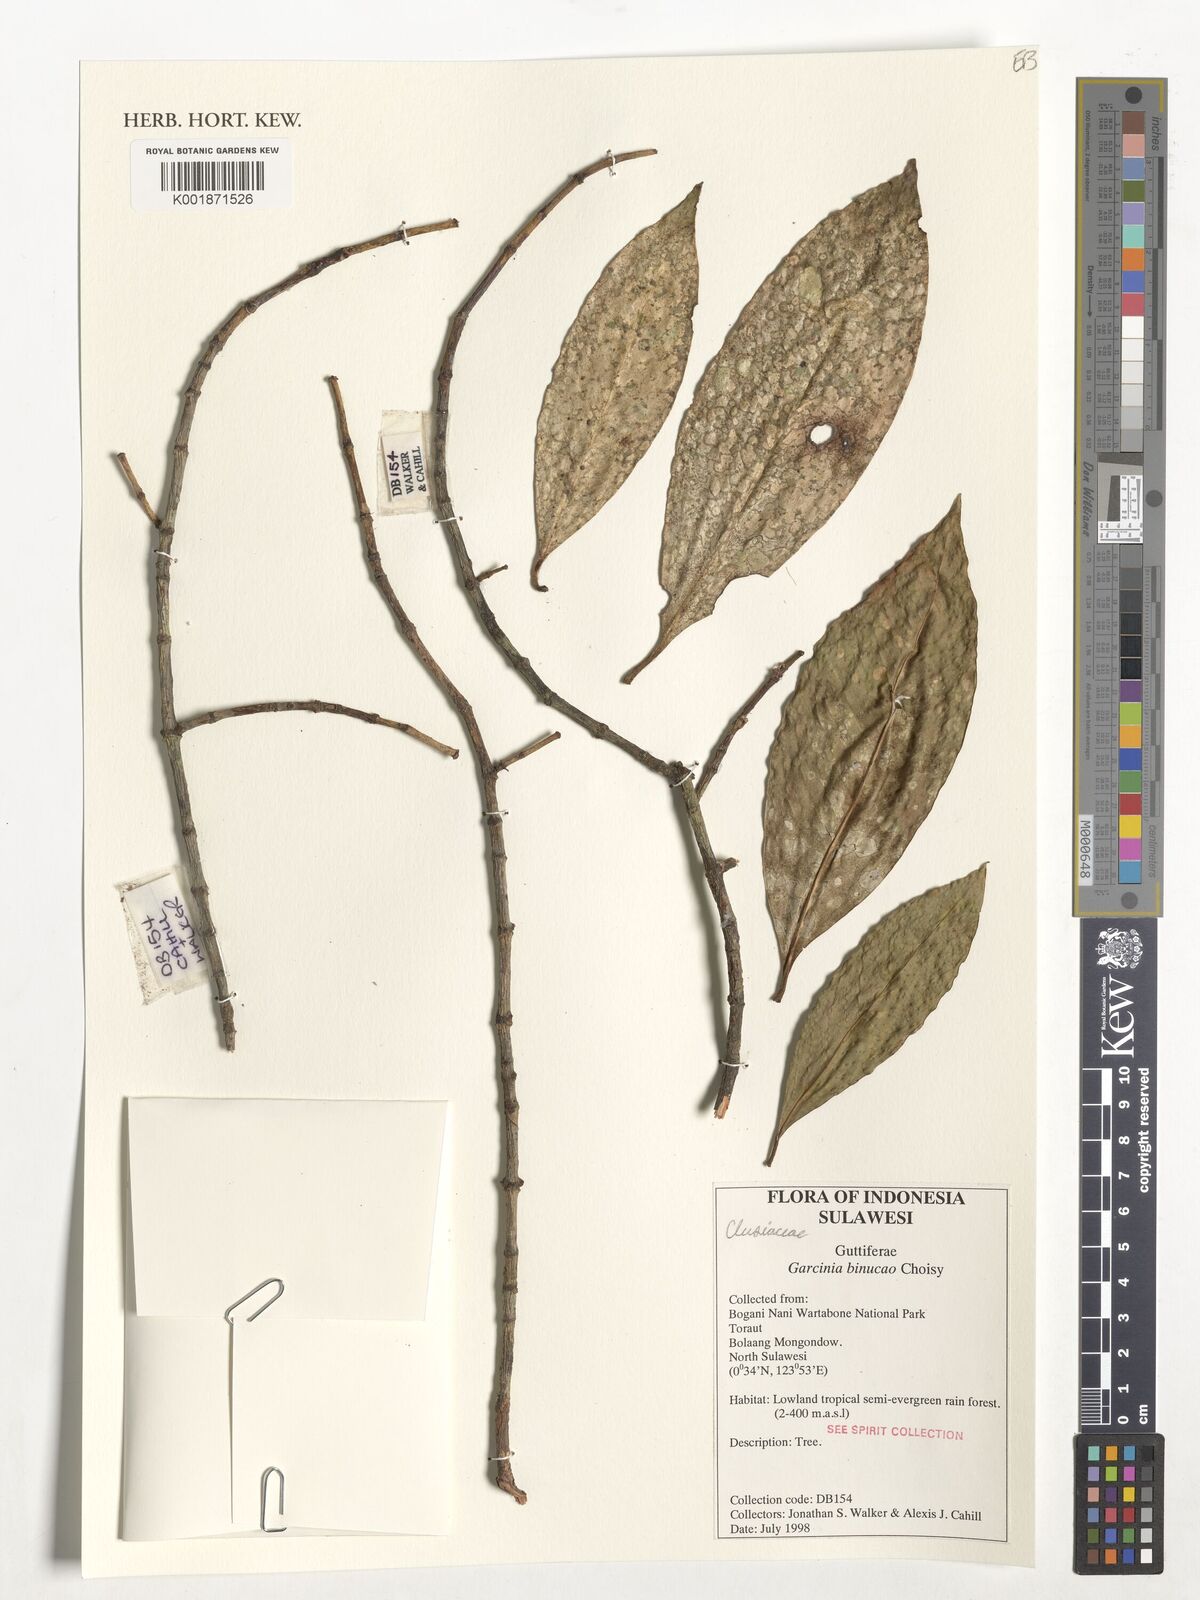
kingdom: Plantae
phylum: Tracheophyta
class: Magnoliopsida
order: Malpighiales
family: Clusiaceae
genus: Garcinia
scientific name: Garcinia binucao
